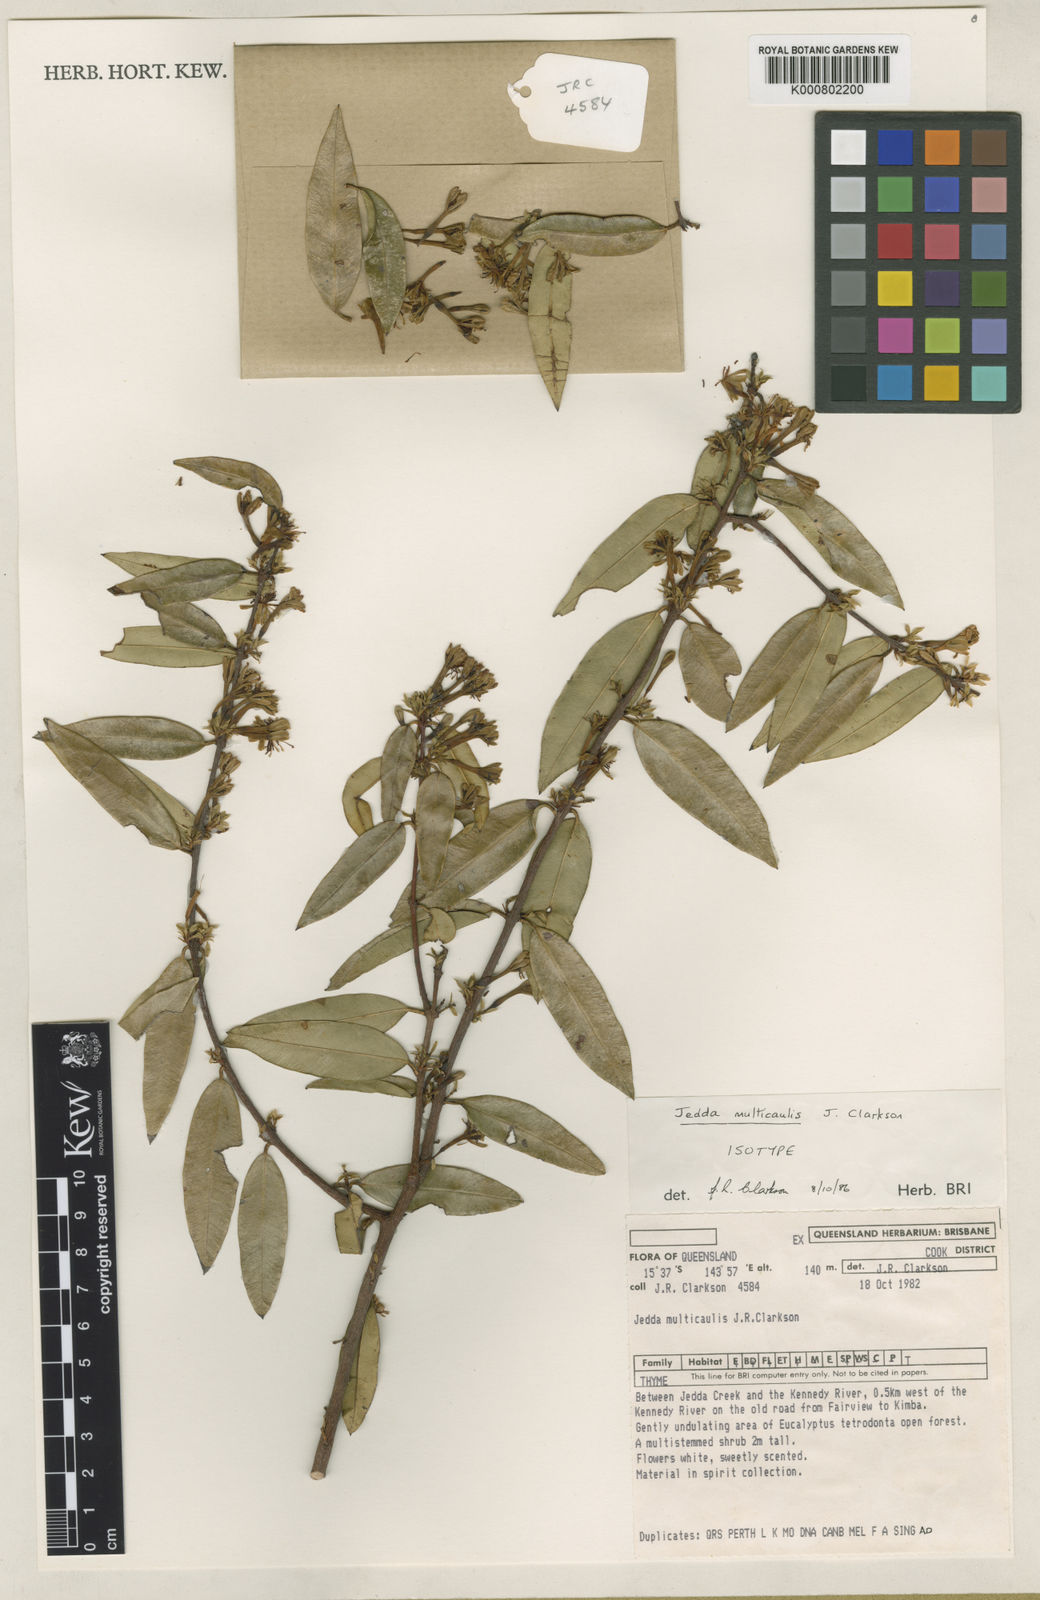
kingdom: Plantae
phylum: Tracheophyta
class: Magnoliopsida
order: Malvales
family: Thymelaeaceae
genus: Jedda
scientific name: Jedda multicaulis
